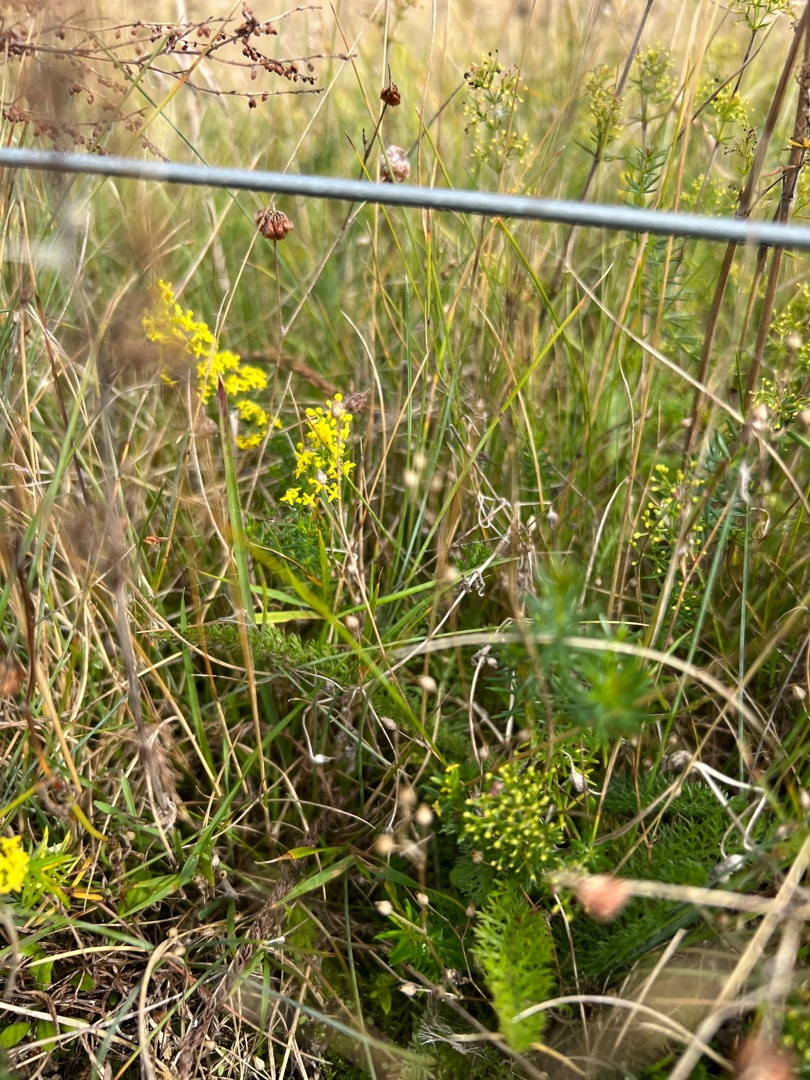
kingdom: Plantae
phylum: Tracheophyta
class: Magnoliopsida
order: Gentianales
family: Rubiaceae
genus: Galium
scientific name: Galium verum
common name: Gul snerre
